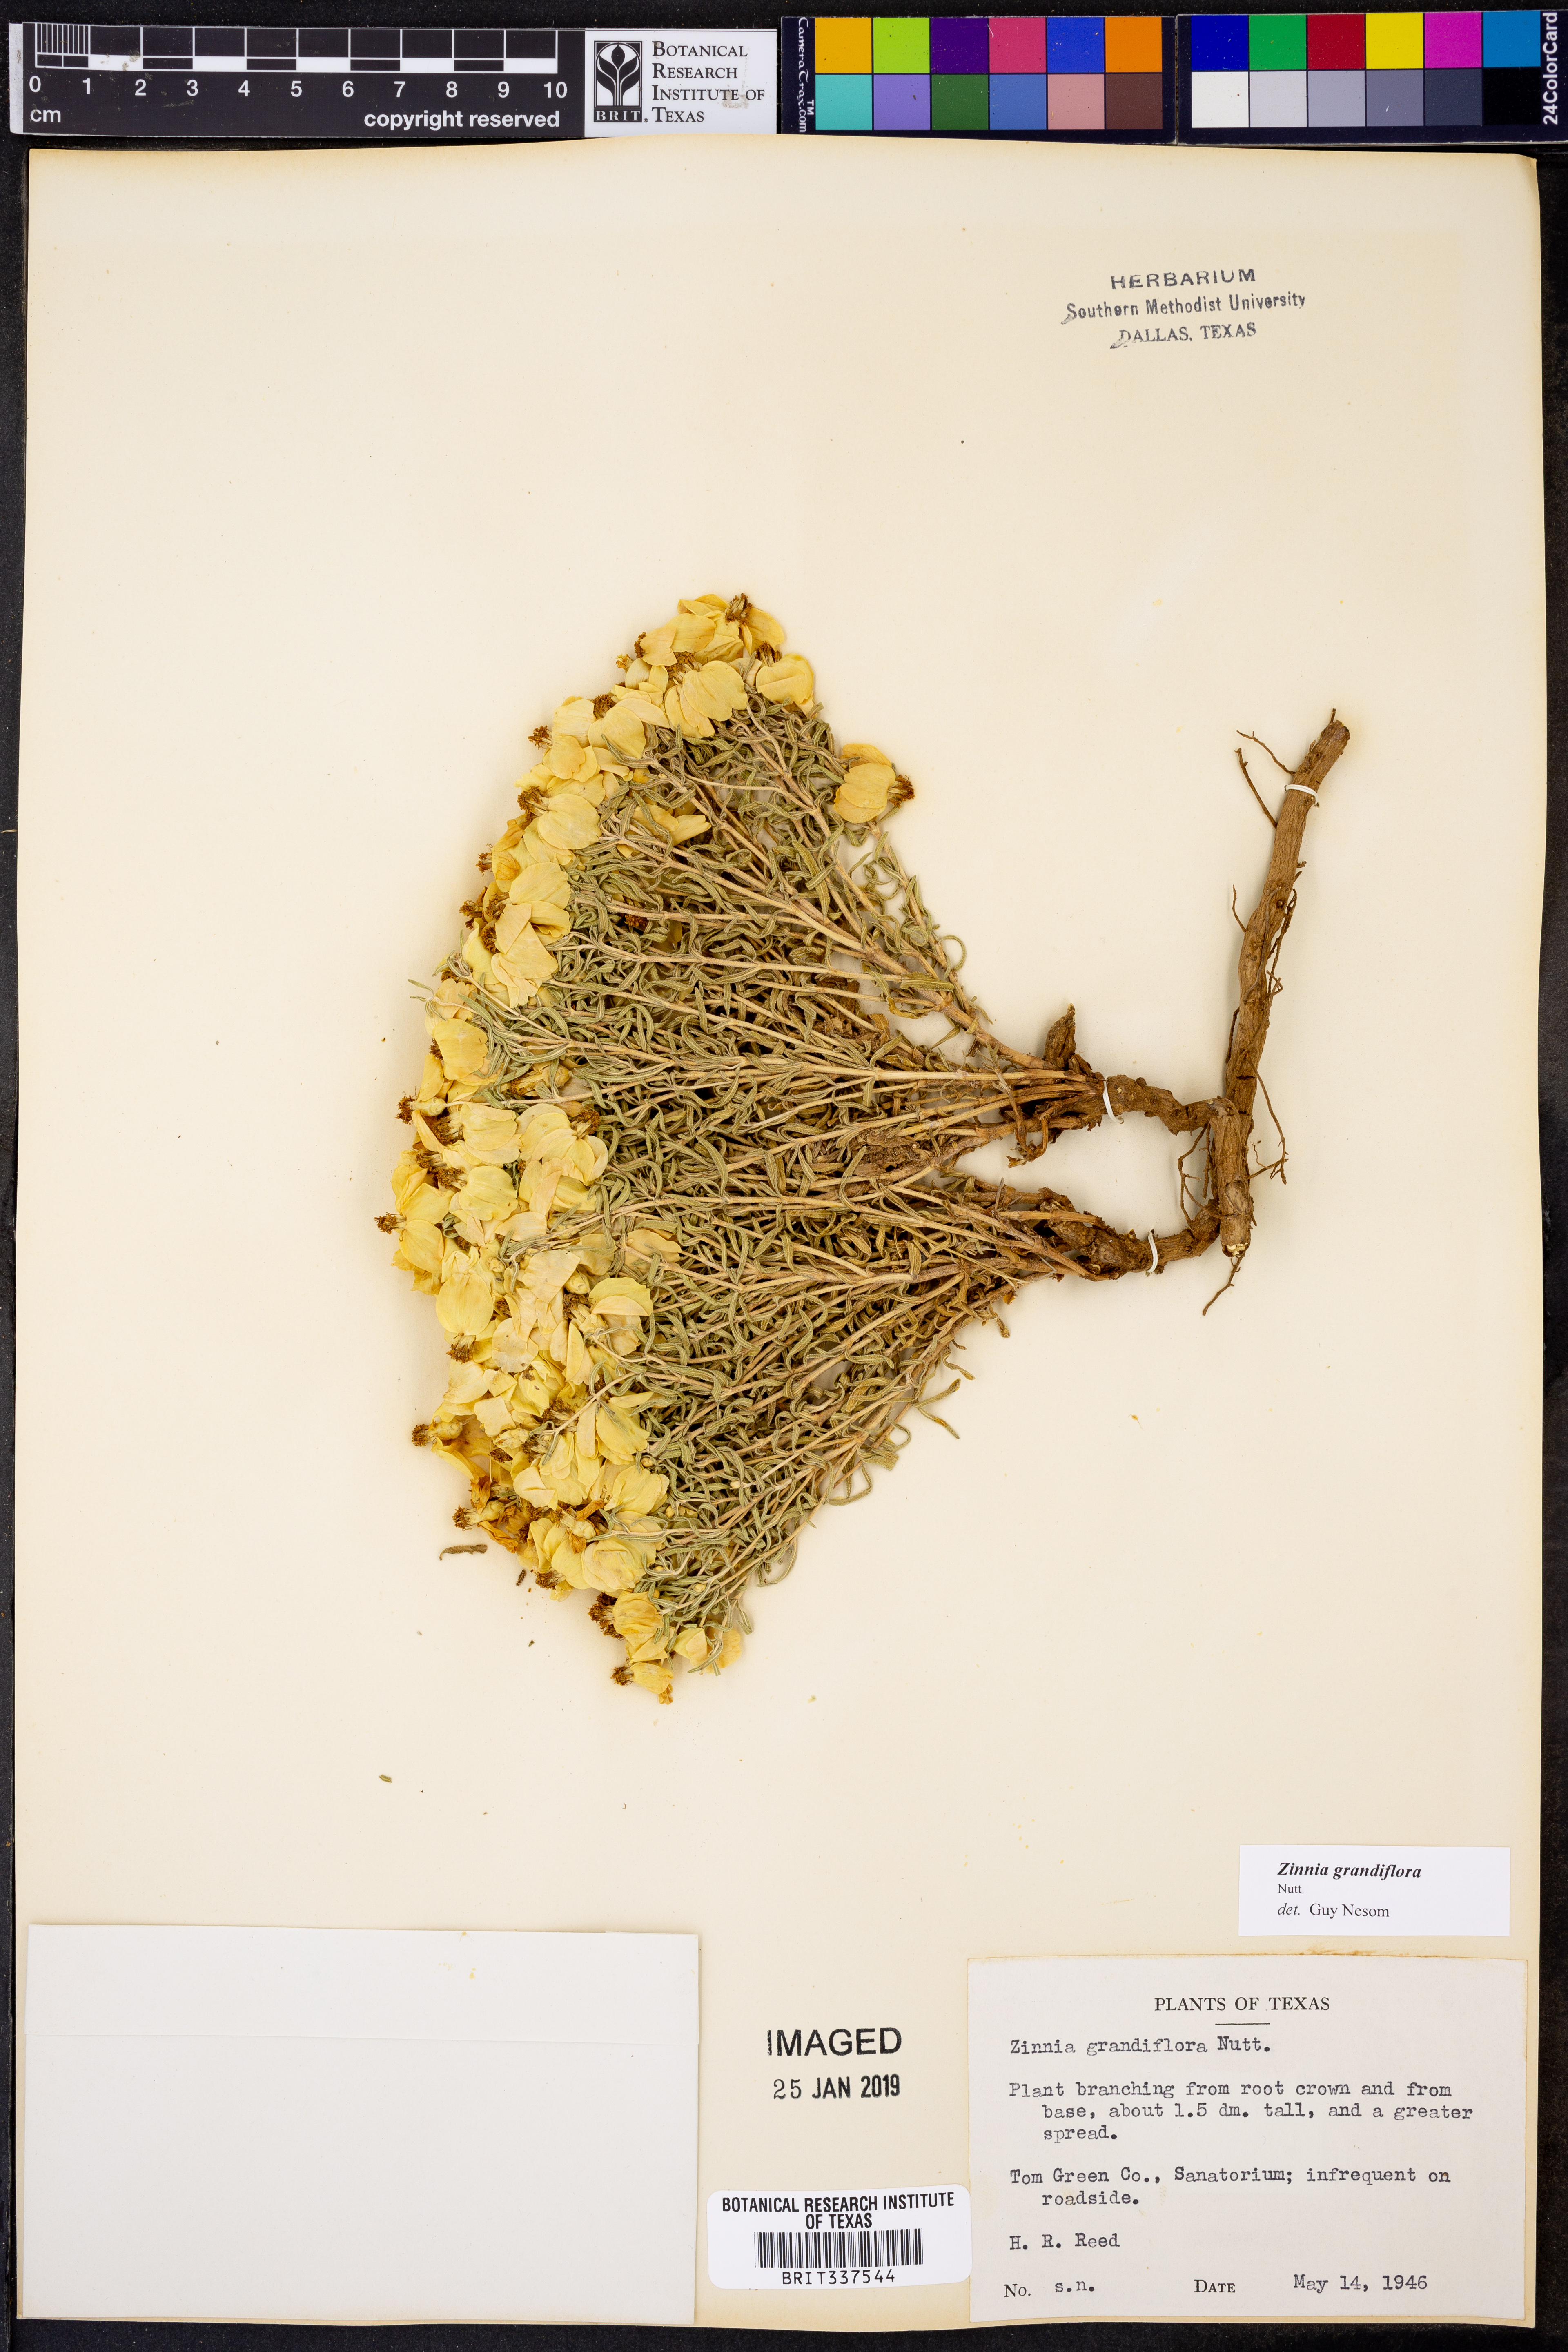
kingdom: Plantae
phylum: Tracheophyta
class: Magnoliopsida
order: Asterales
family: Asteraceae
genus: Zinnia
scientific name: Zinnia grandiflora
